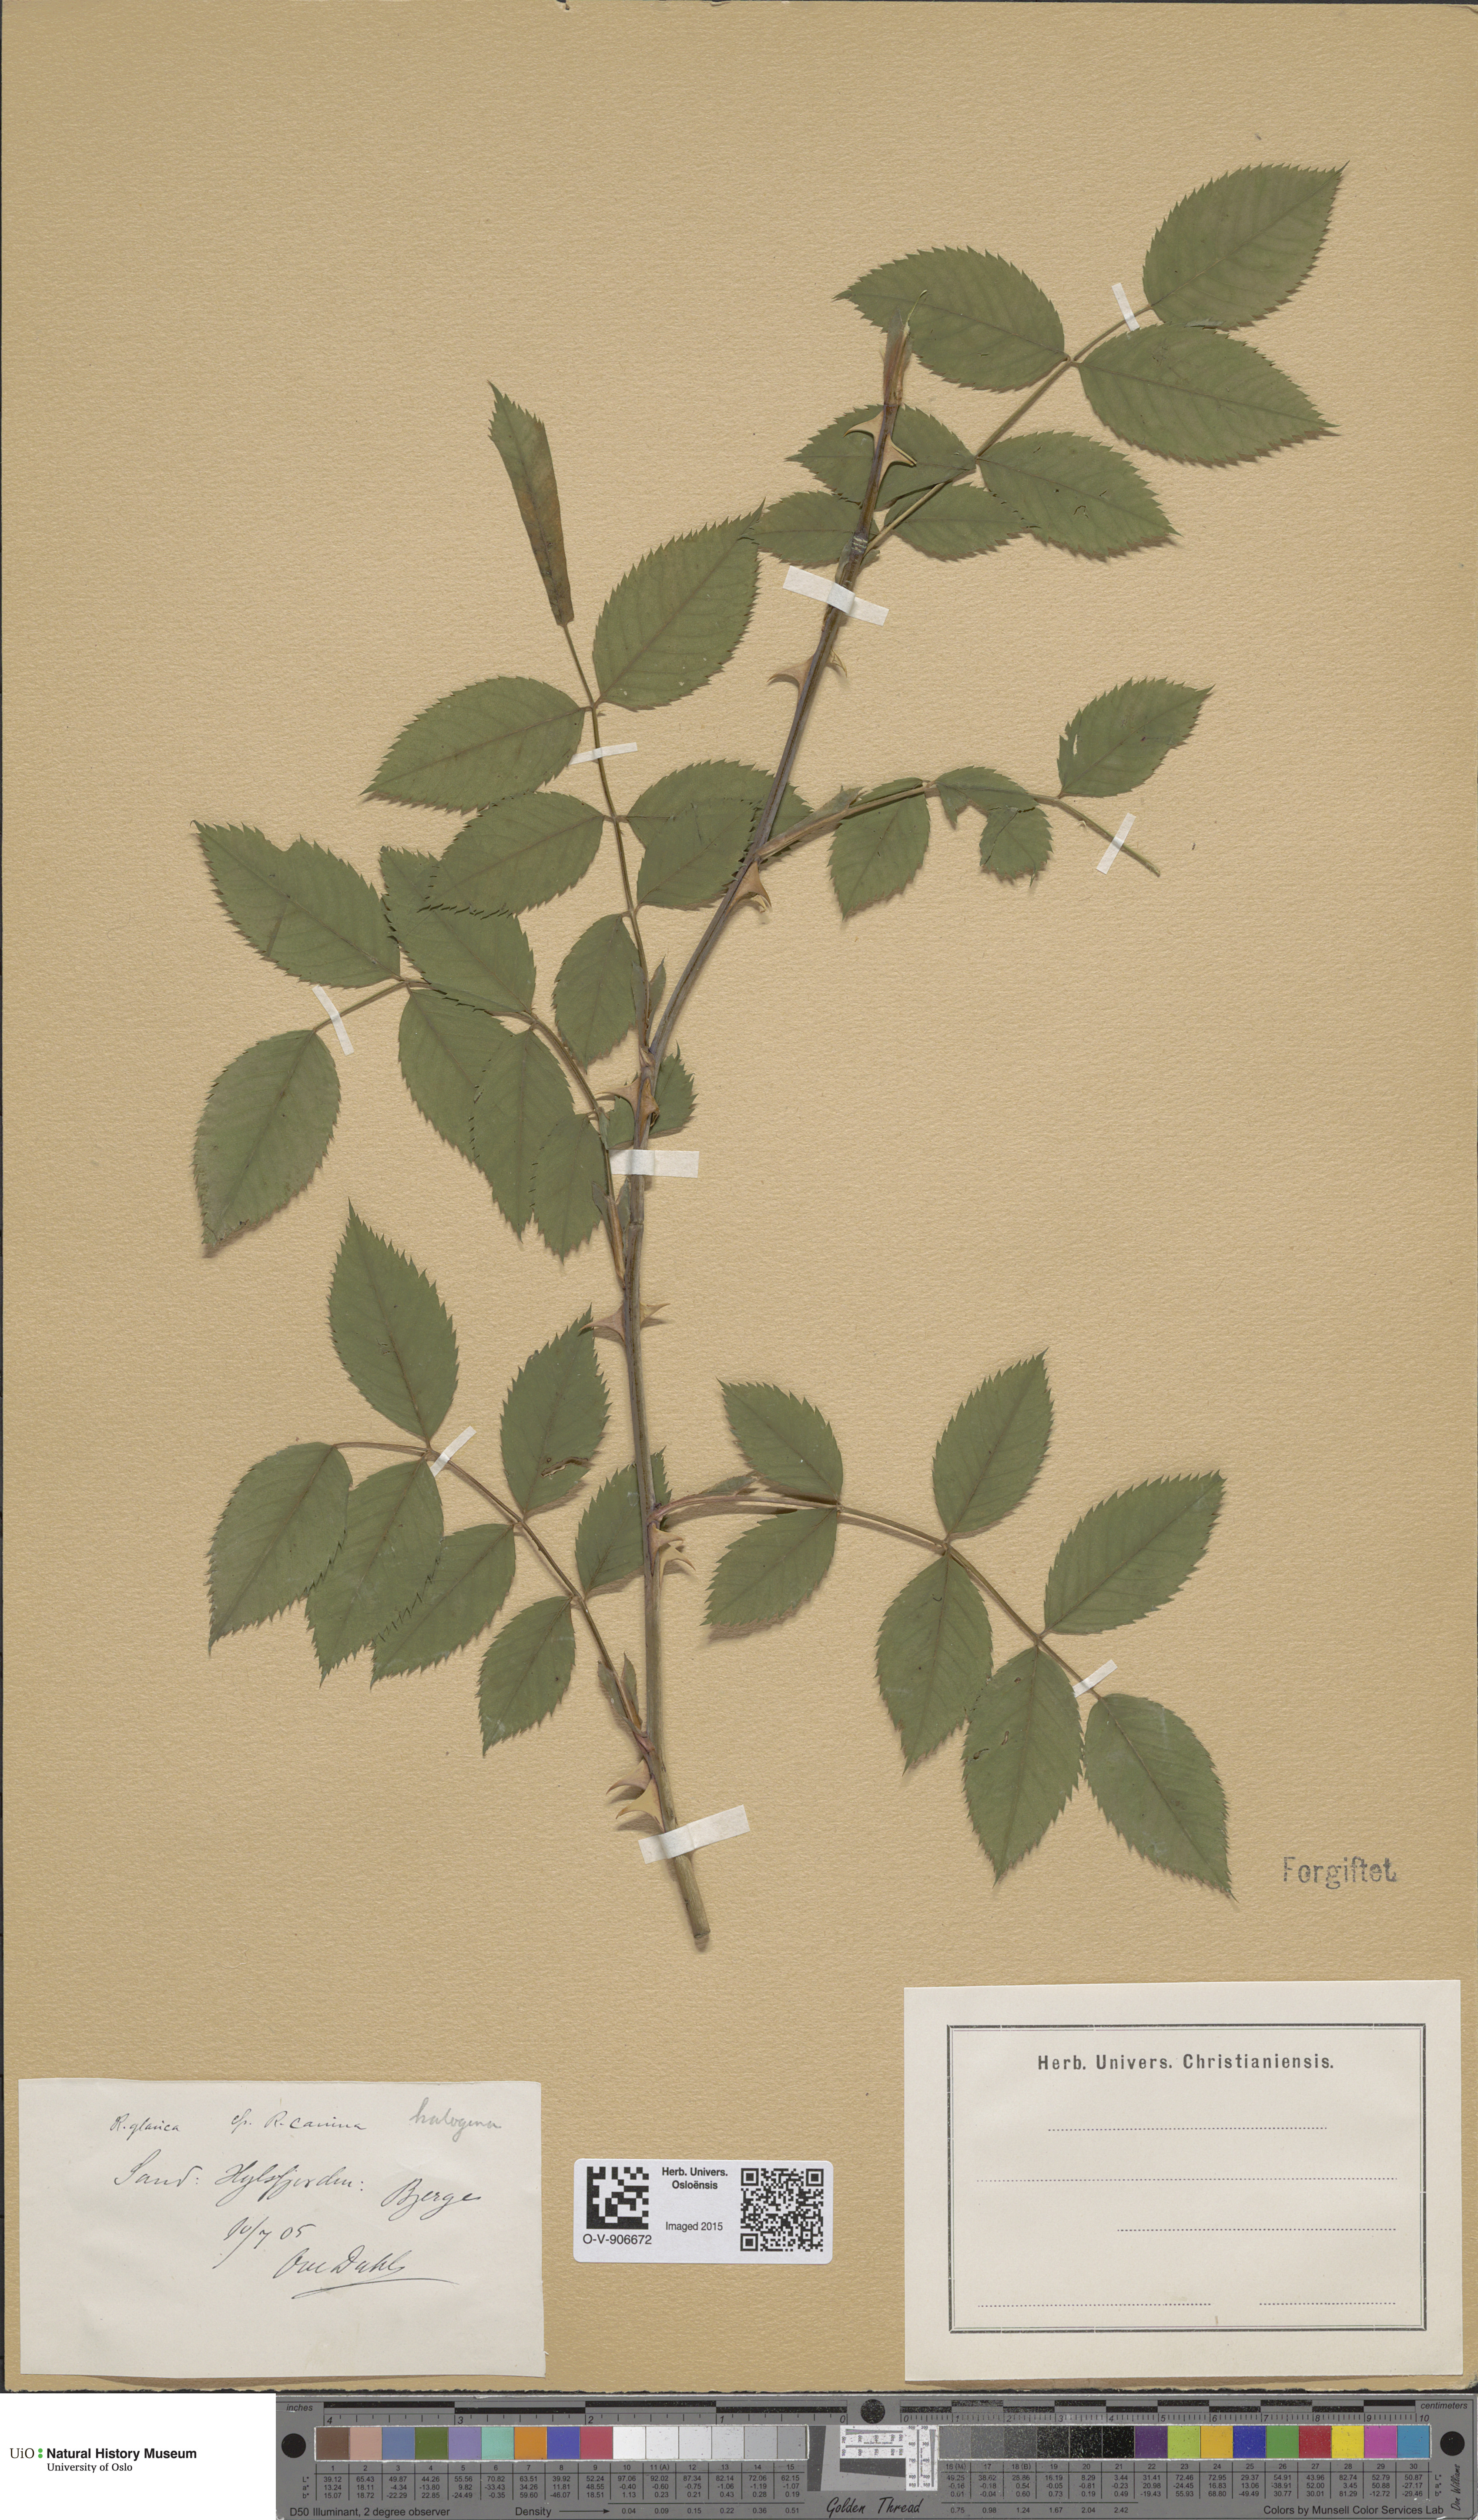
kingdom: Plantae
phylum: Tracheophyta
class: Magnoliopsida
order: Rosales
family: Rosaceae
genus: Rosa
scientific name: Rosa glauca
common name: Redleaf rose
